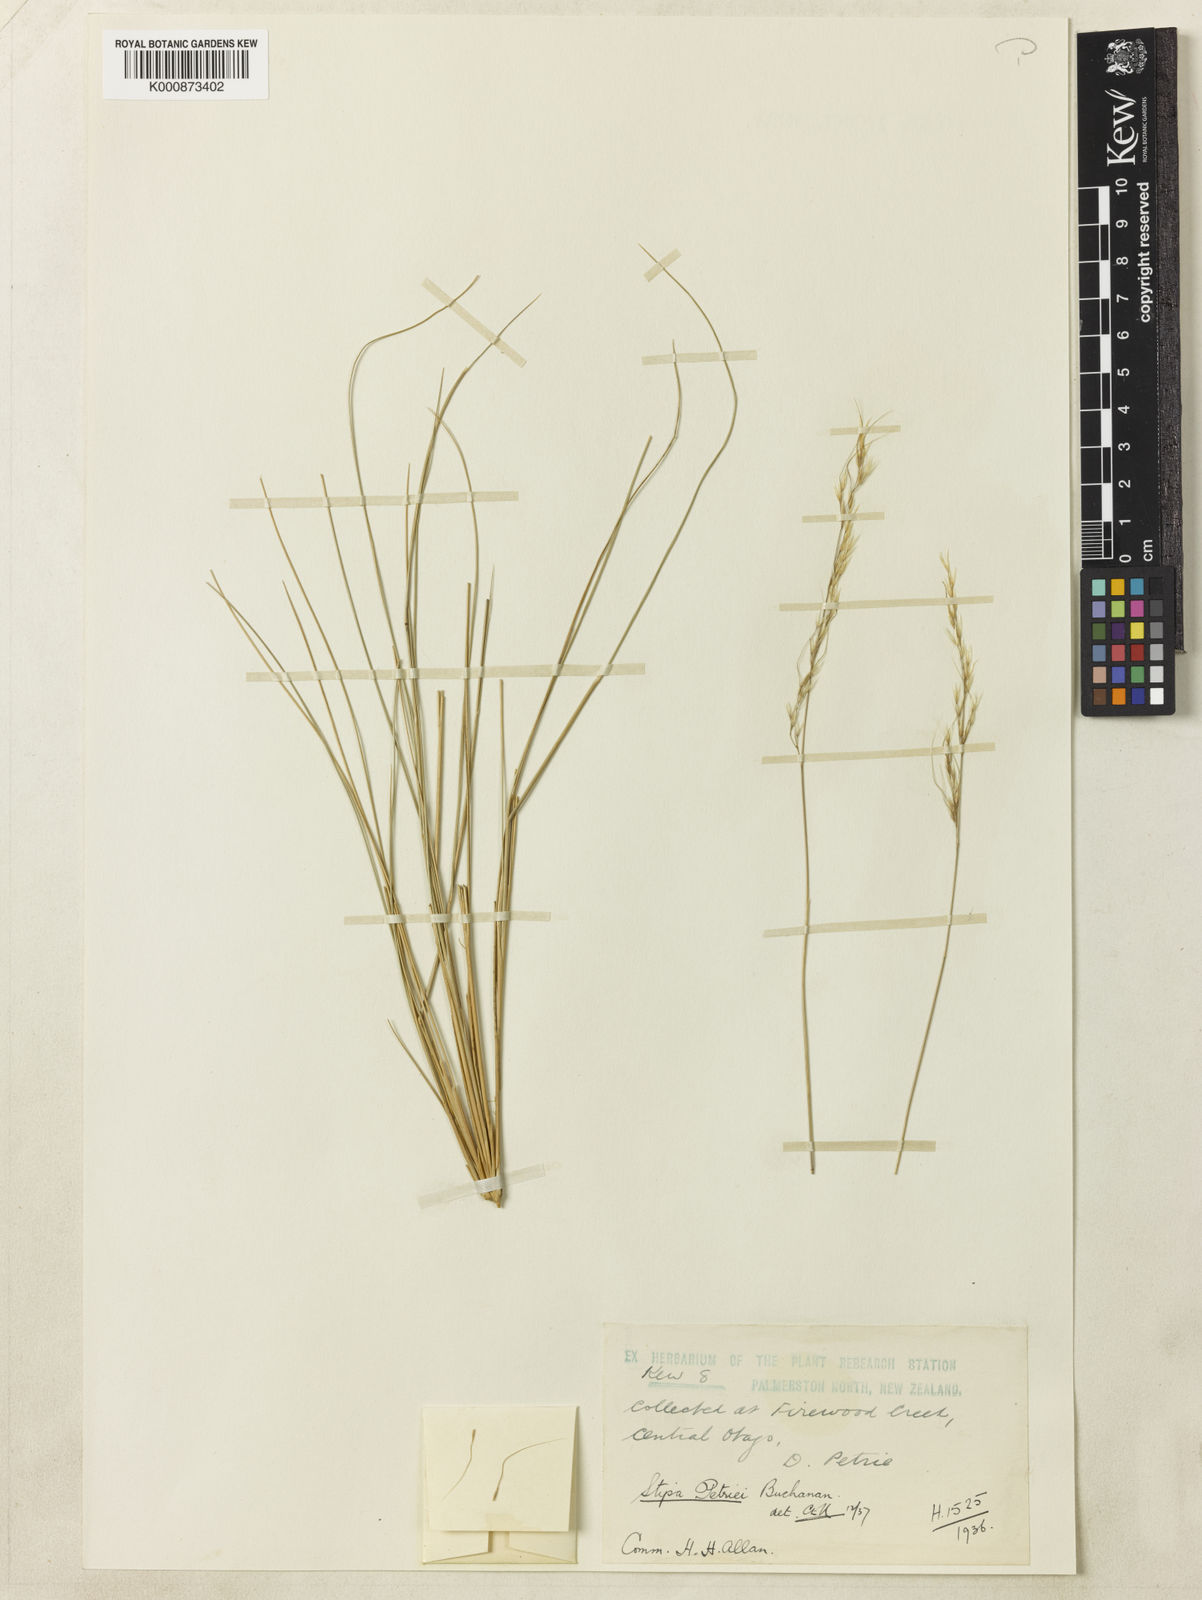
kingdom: Plantae
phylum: Tracheophyta
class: Liliopsida
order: Poales
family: Poaceae
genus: Stipa
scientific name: Stipa petriei
